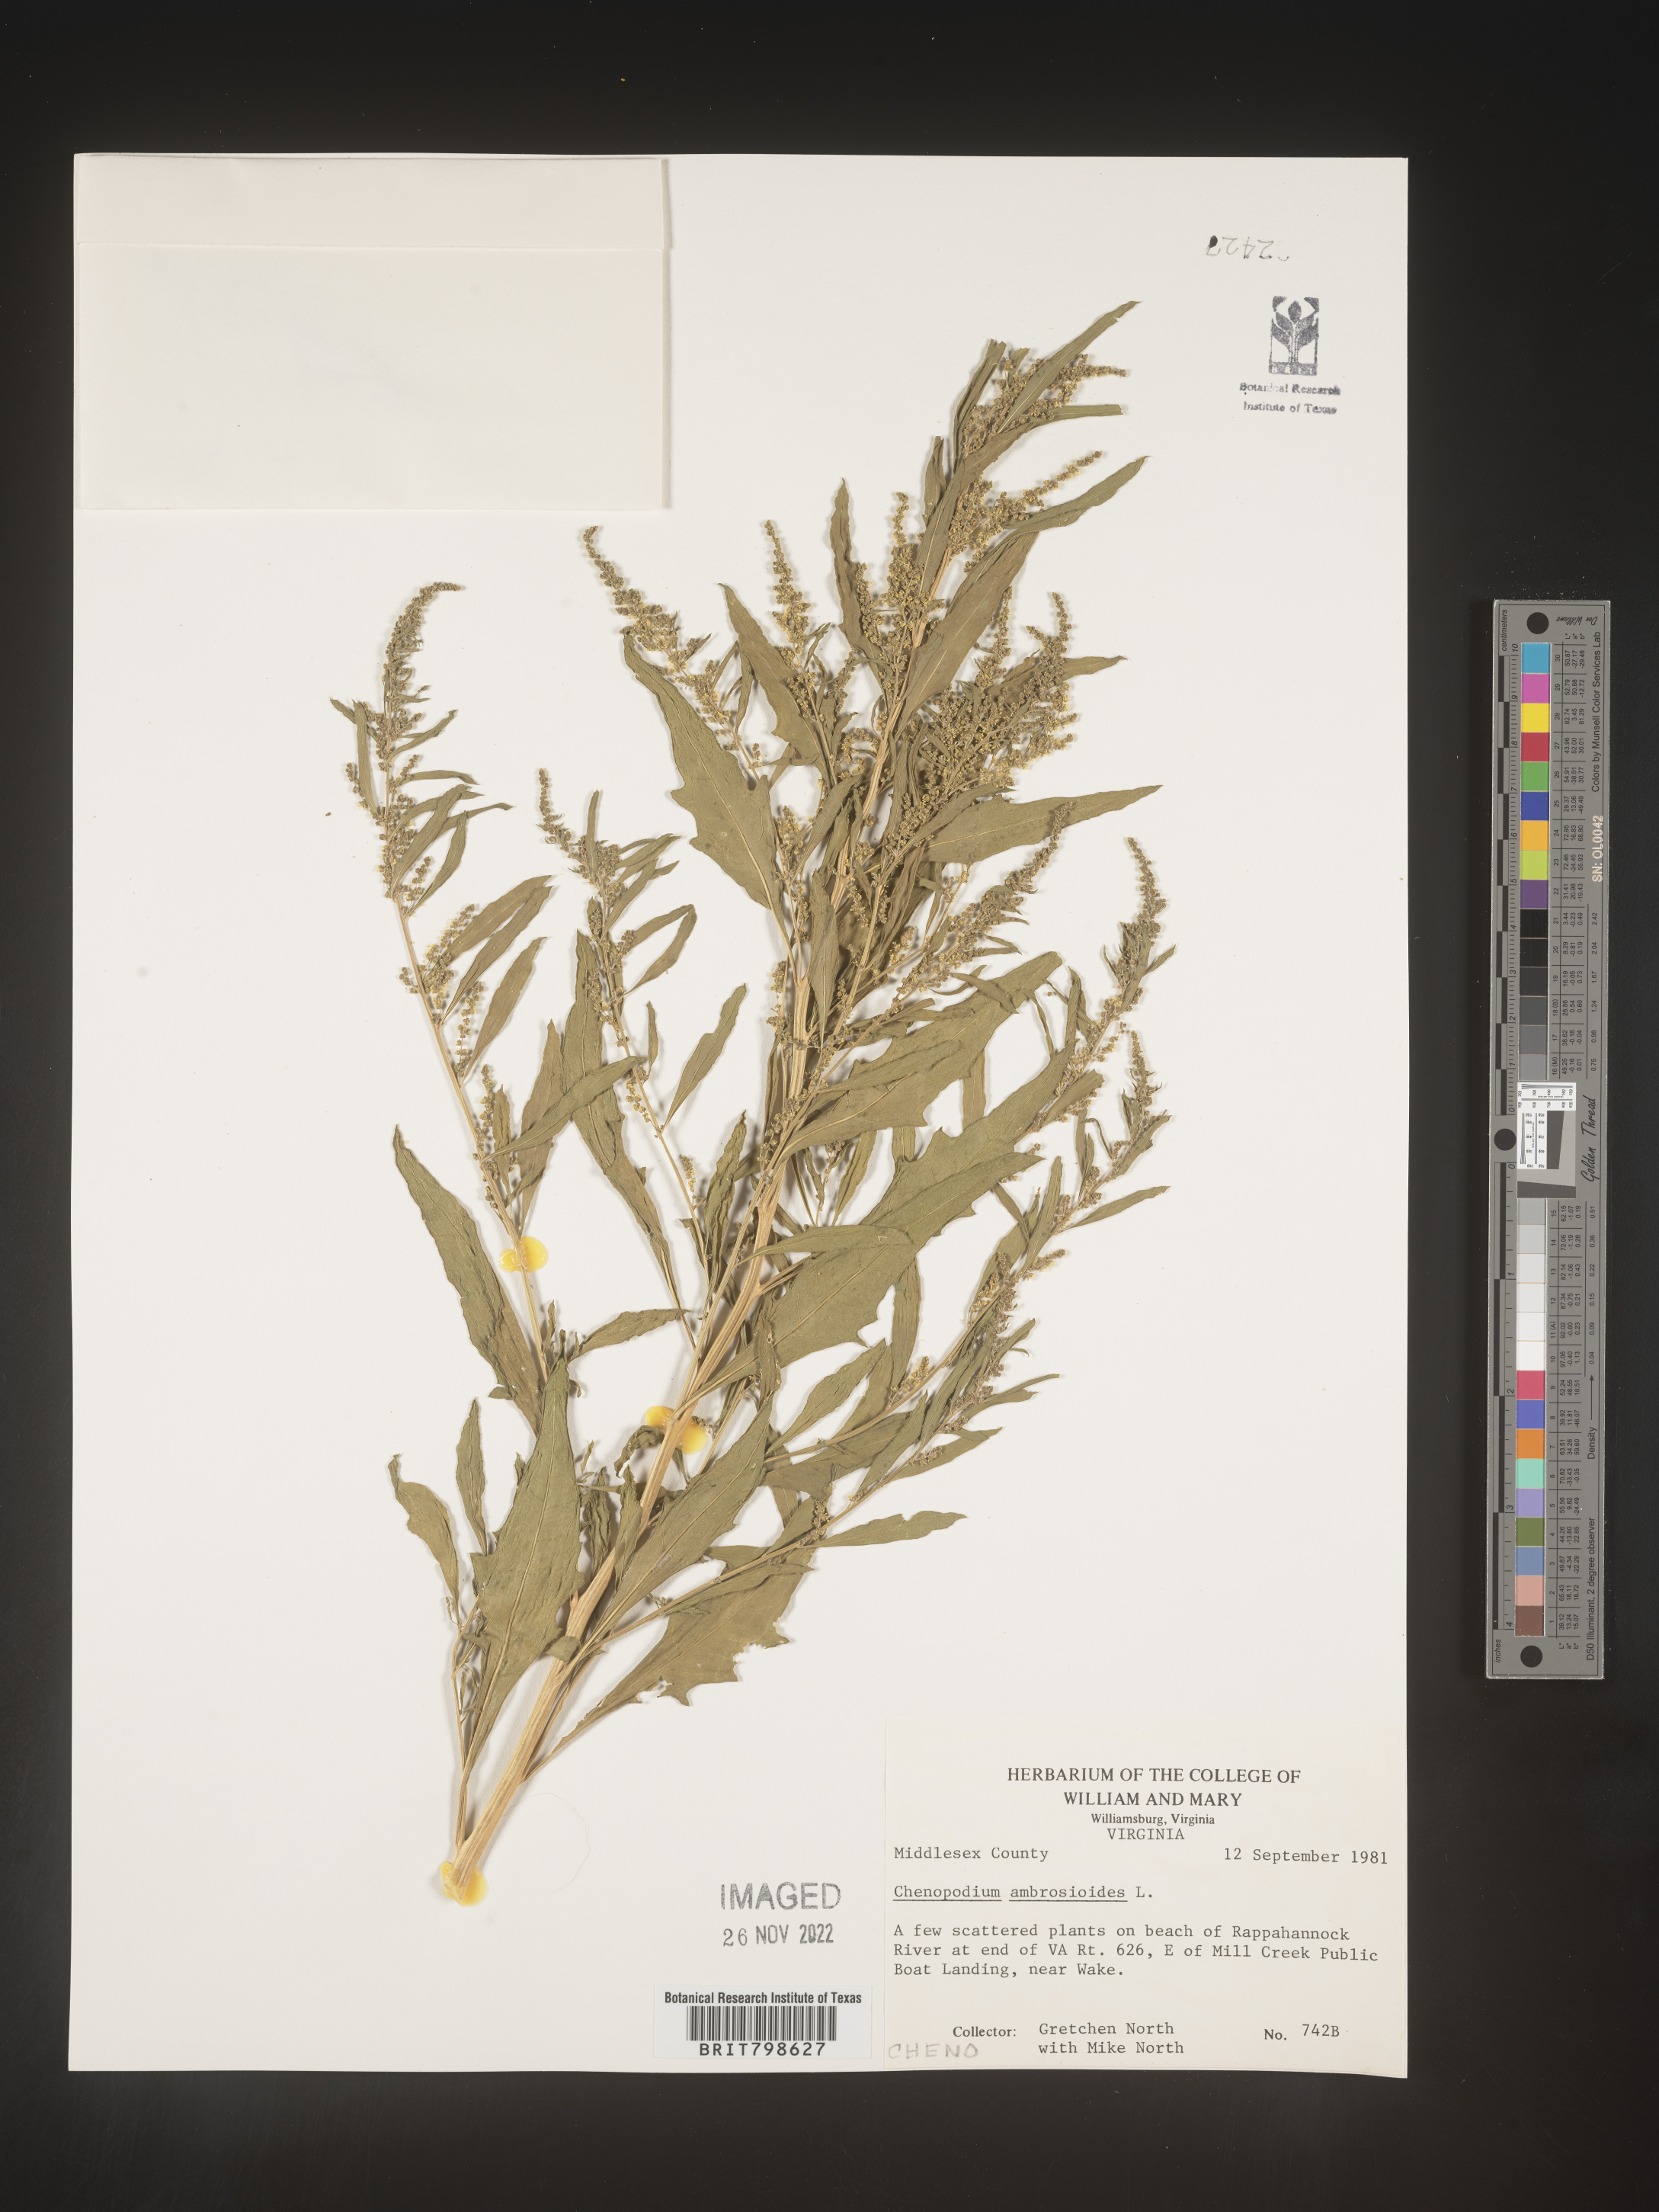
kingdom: Plantae
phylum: Tracheophyta
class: Magnoliopsida
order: Caryophyllales
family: Amaranthaceae
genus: Dysphania
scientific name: Dysphania ambrosioides
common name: Wormseed
